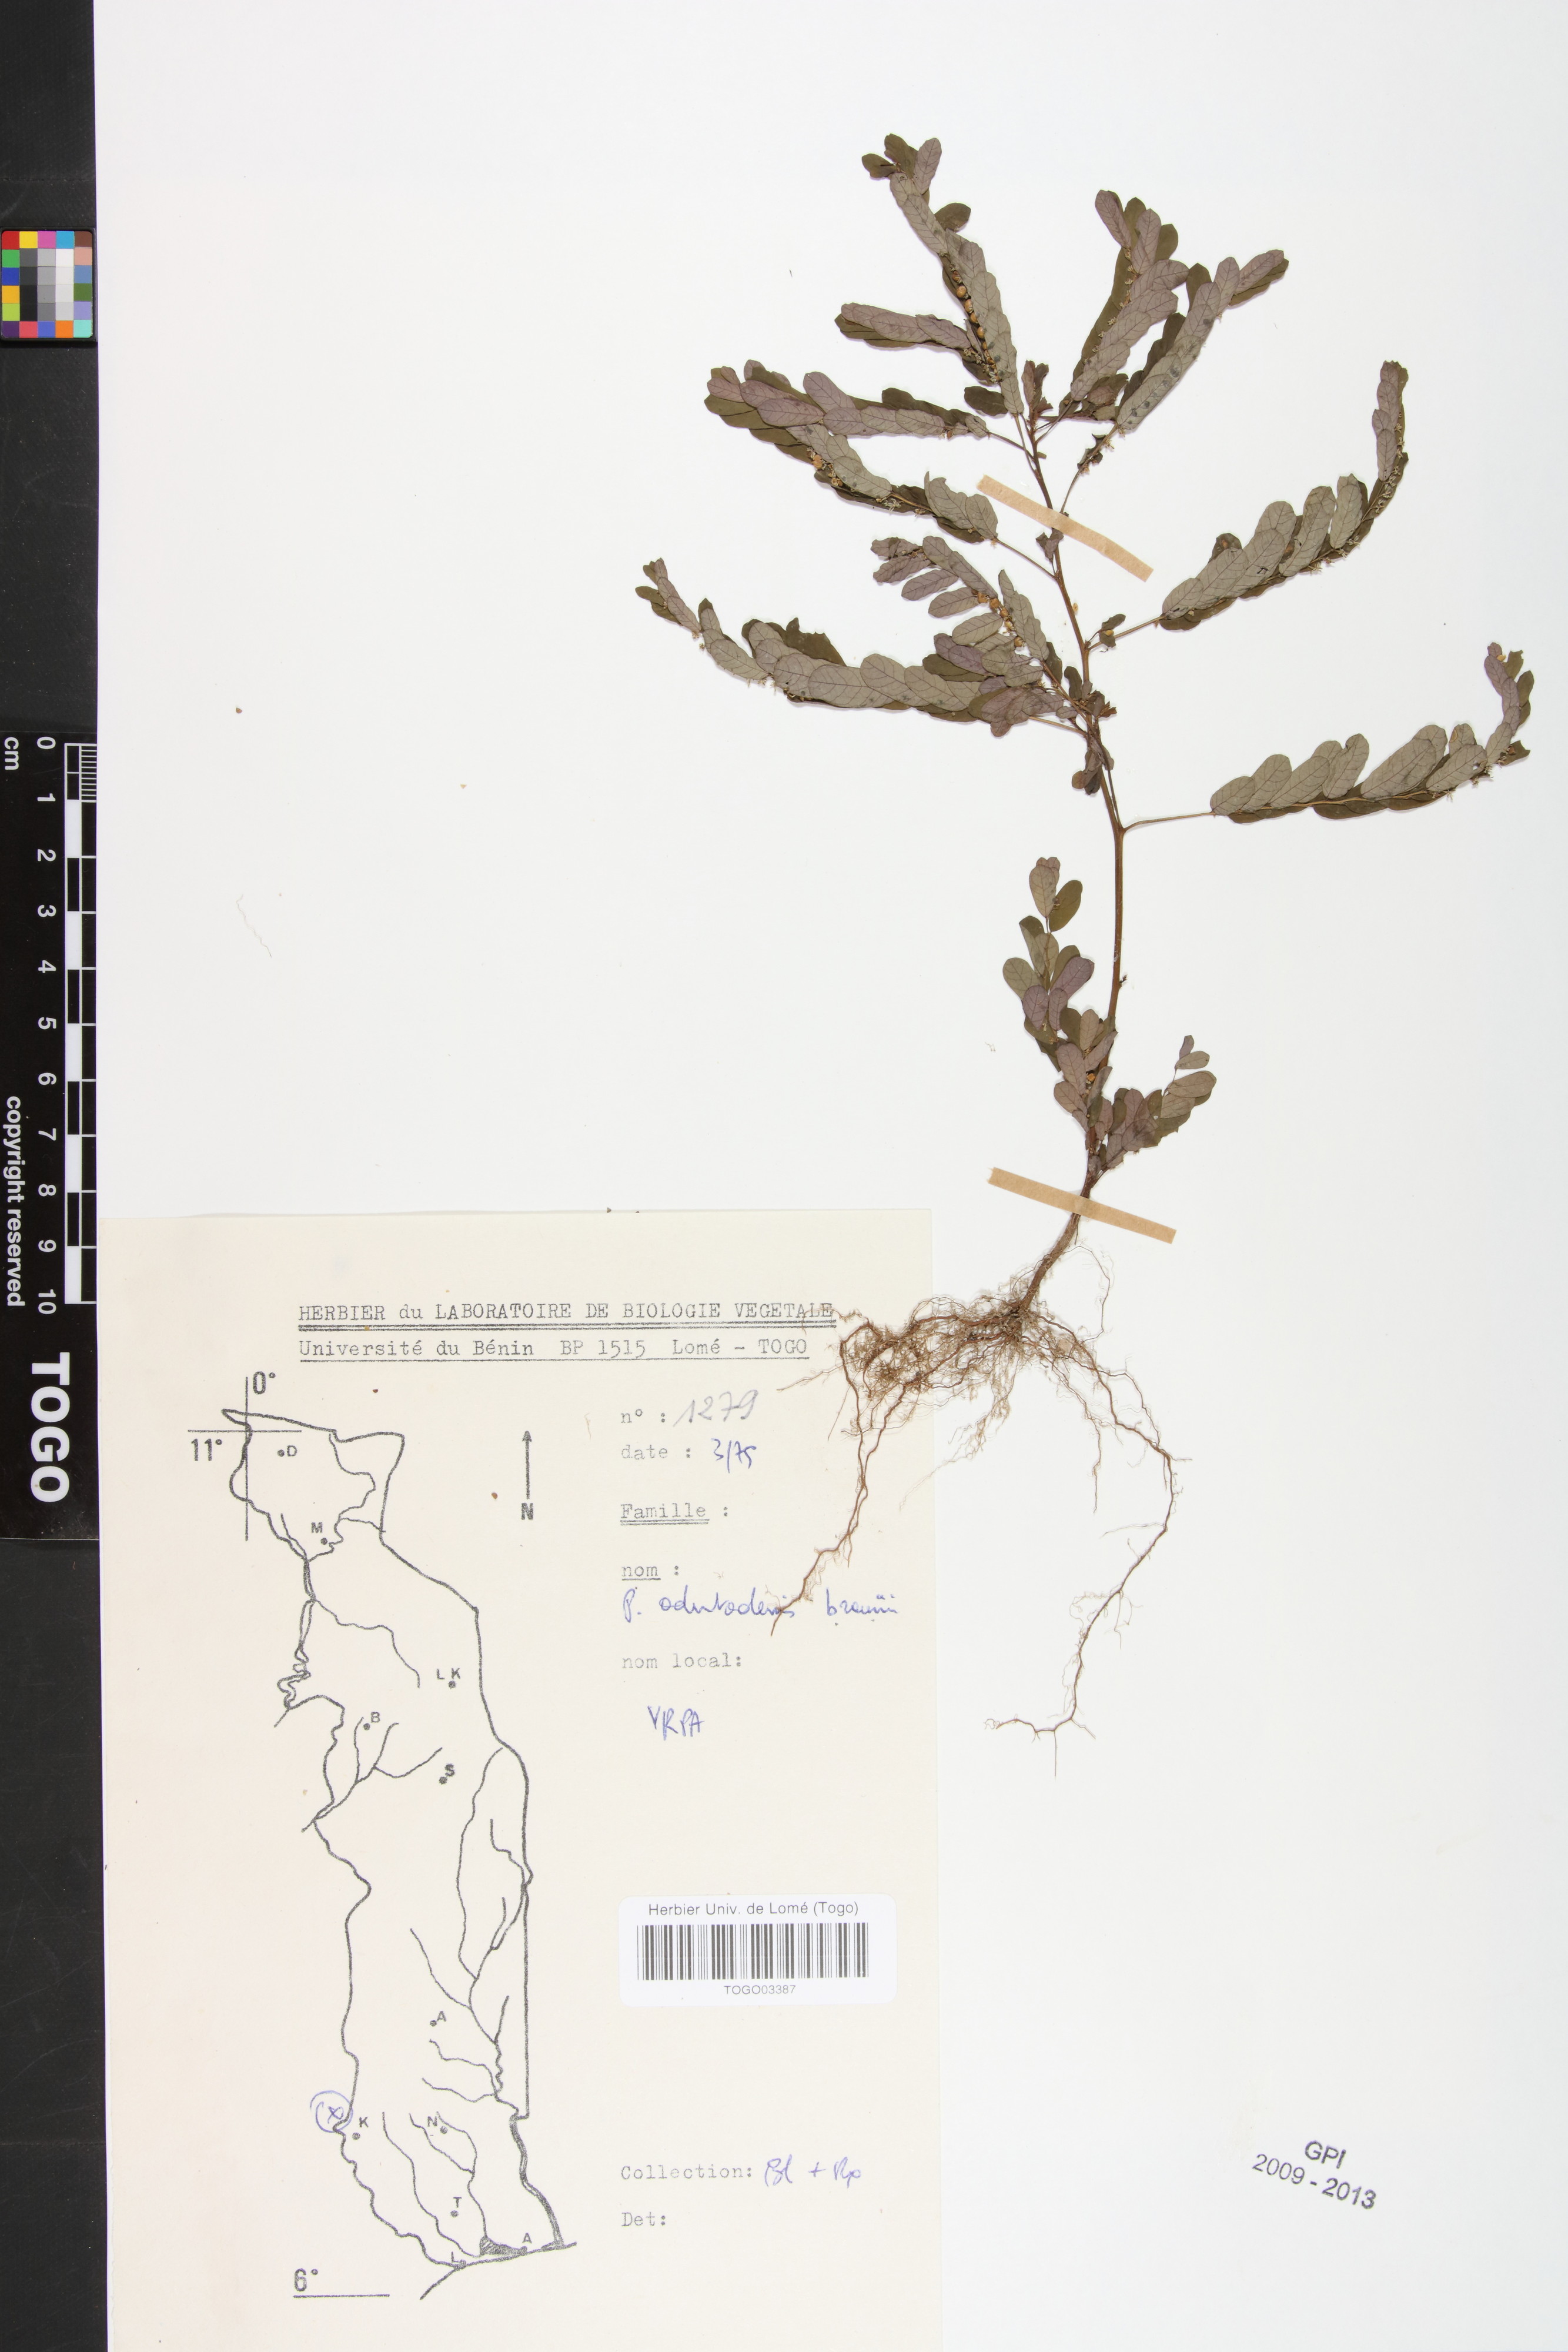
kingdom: Plantae
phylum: Tracheophyta
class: Magnoliopsida
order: Malpighiales
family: Phyllanthaceae
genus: Phyllanthus
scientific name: Phyllanthus odontadenius
